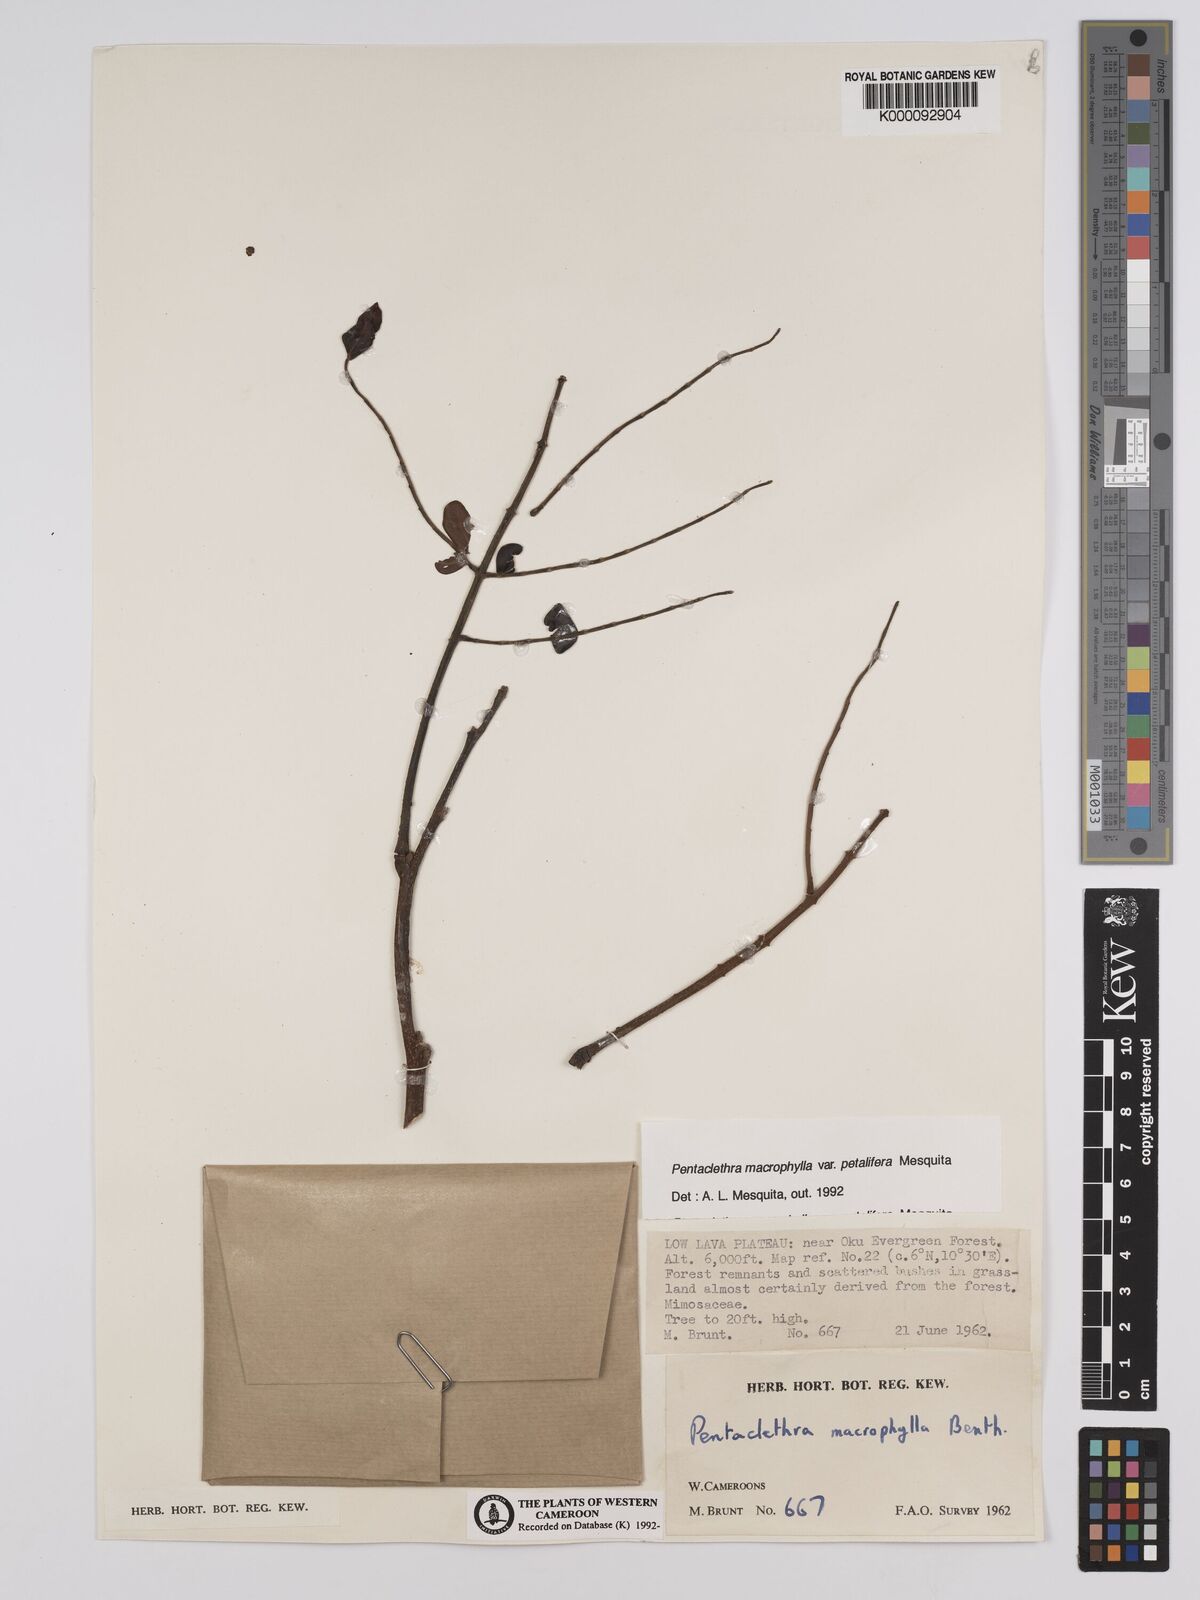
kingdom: Plantae
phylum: Tracheophyta
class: Magnoliopsida
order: Fabales
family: Fabaceae
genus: Pentaclethra
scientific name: Pentaclethra macrophylla
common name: African oil bean
